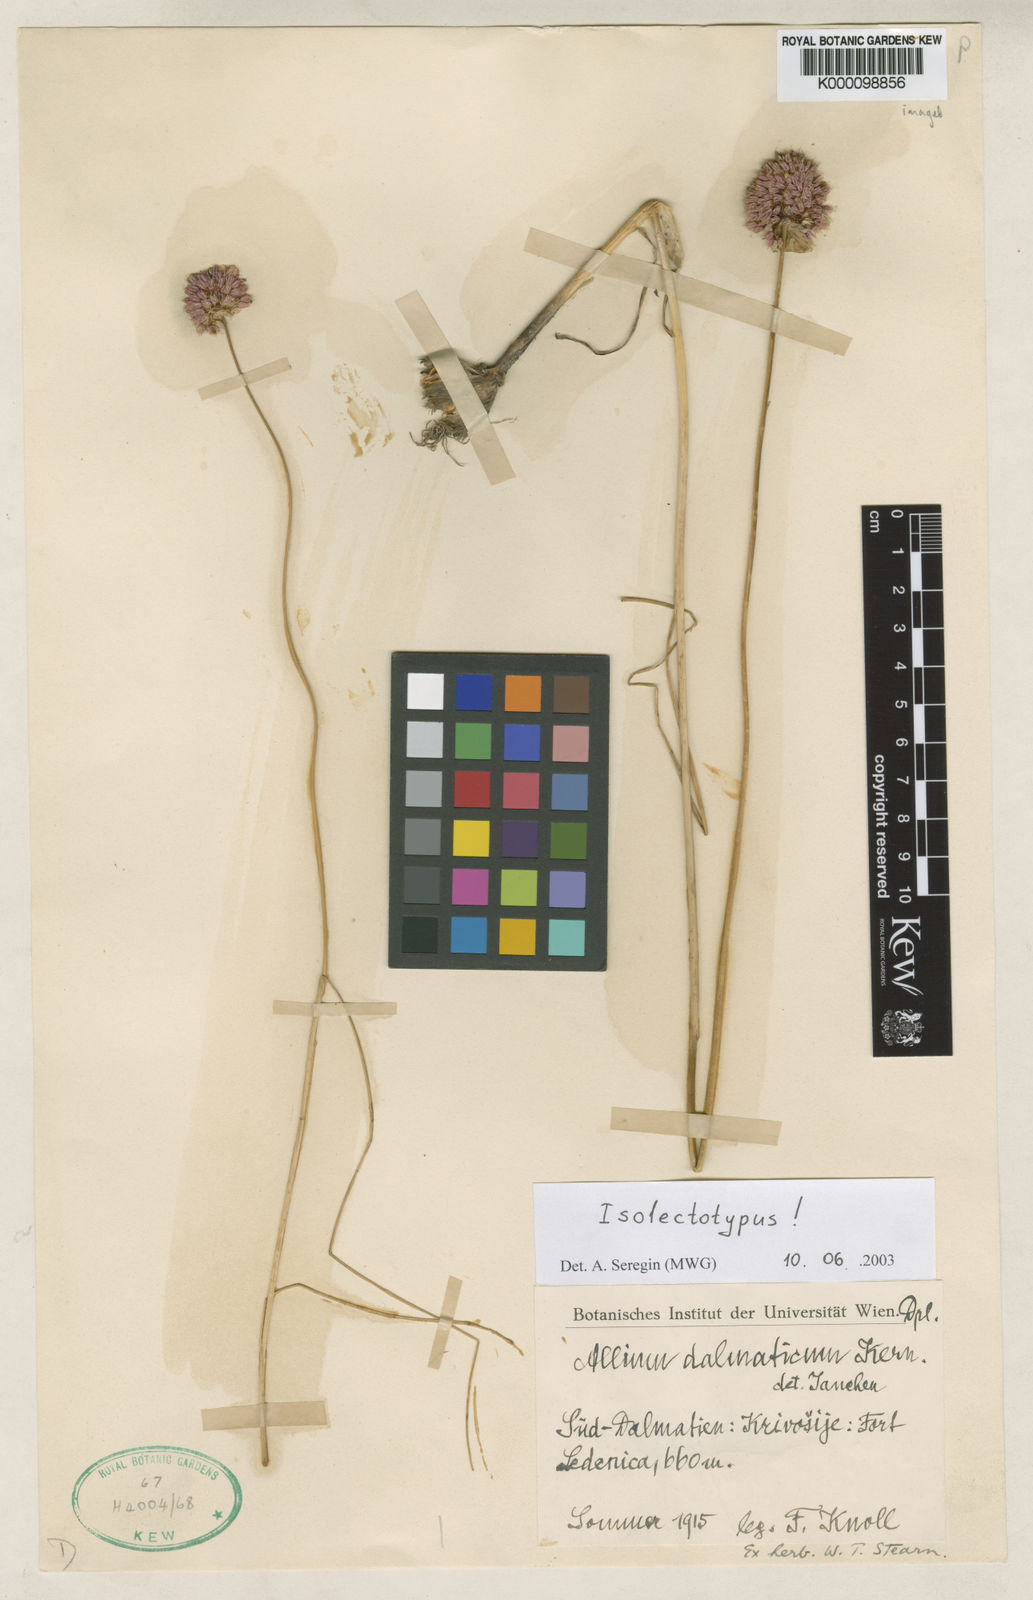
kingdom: Plantae
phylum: Tracheophyta
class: Liliopsida
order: Asparagales
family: Amaryllidaceae
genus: Allium
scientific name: Allium guttatum
